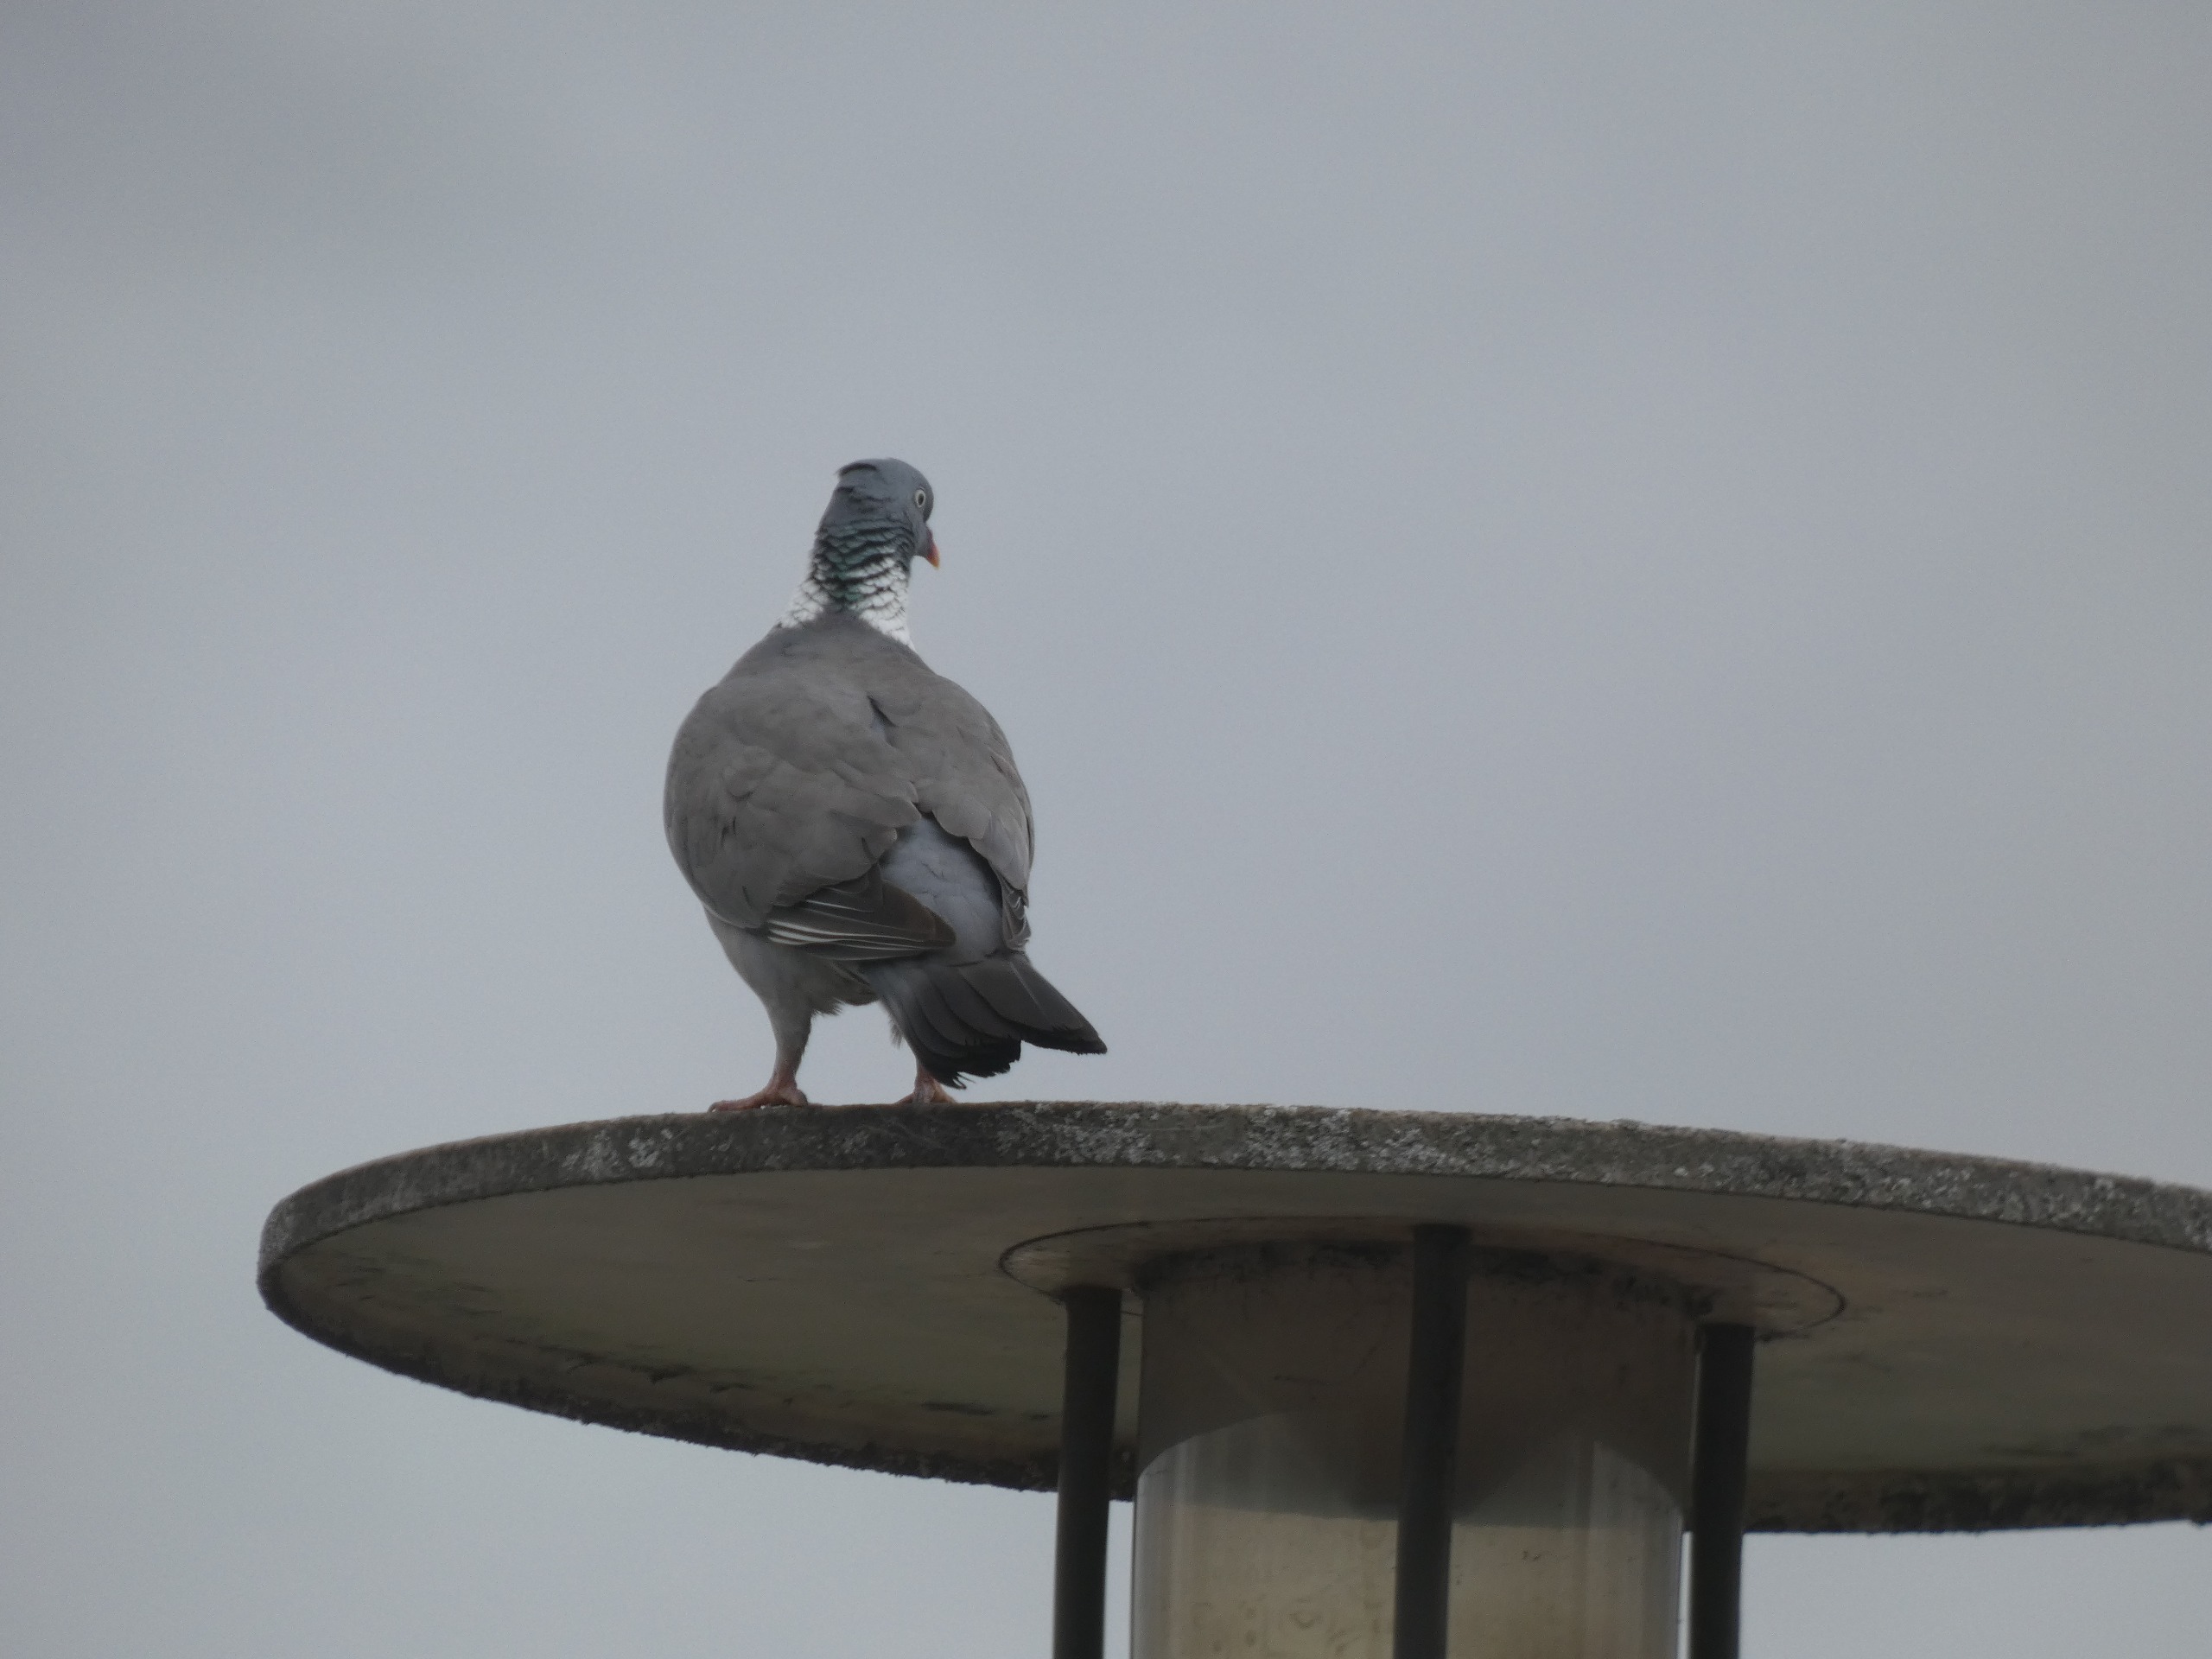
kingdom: Animalia
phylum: Chordata
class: Aves
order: Columbiformes
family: Columbidae
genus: Columba
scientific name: Columba palumbus
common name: Ringdue
